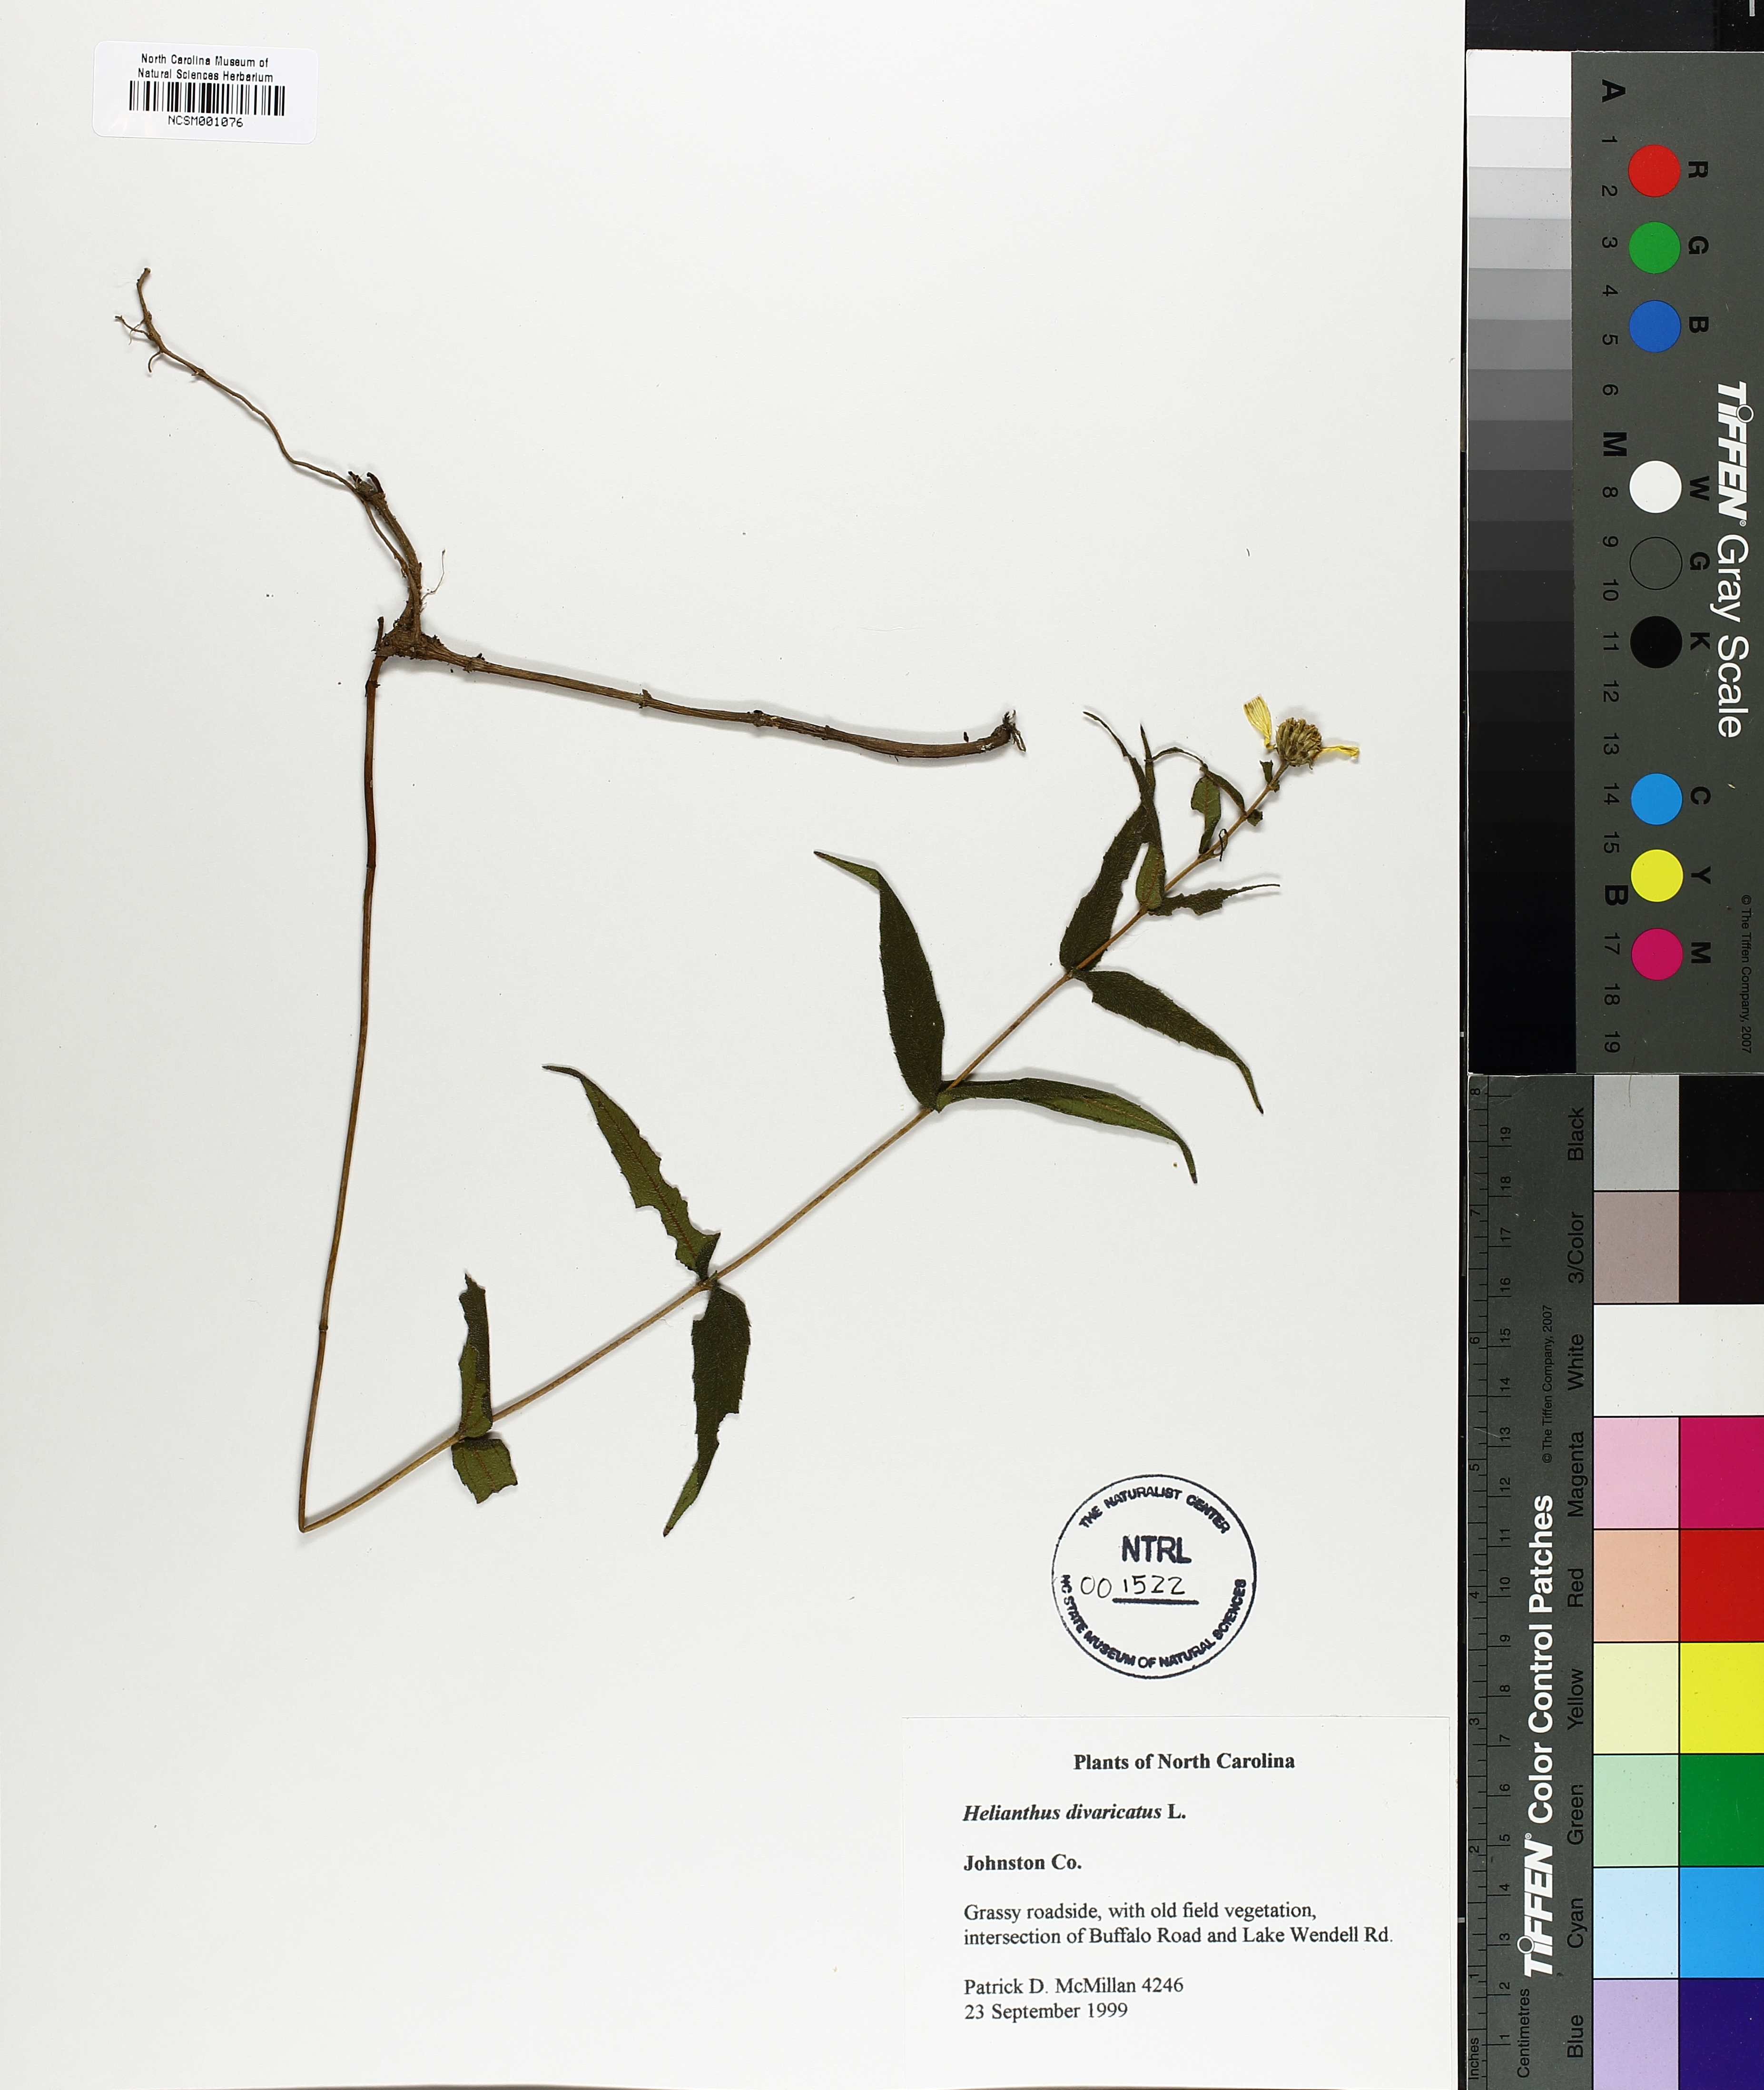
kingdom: Plantae
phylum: Tracheophyta
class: Magnoliopsida
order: Asterales
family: Asteraceae
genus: Helianthus
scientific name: Helianthus divaricatus
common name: Divergent sunflower
